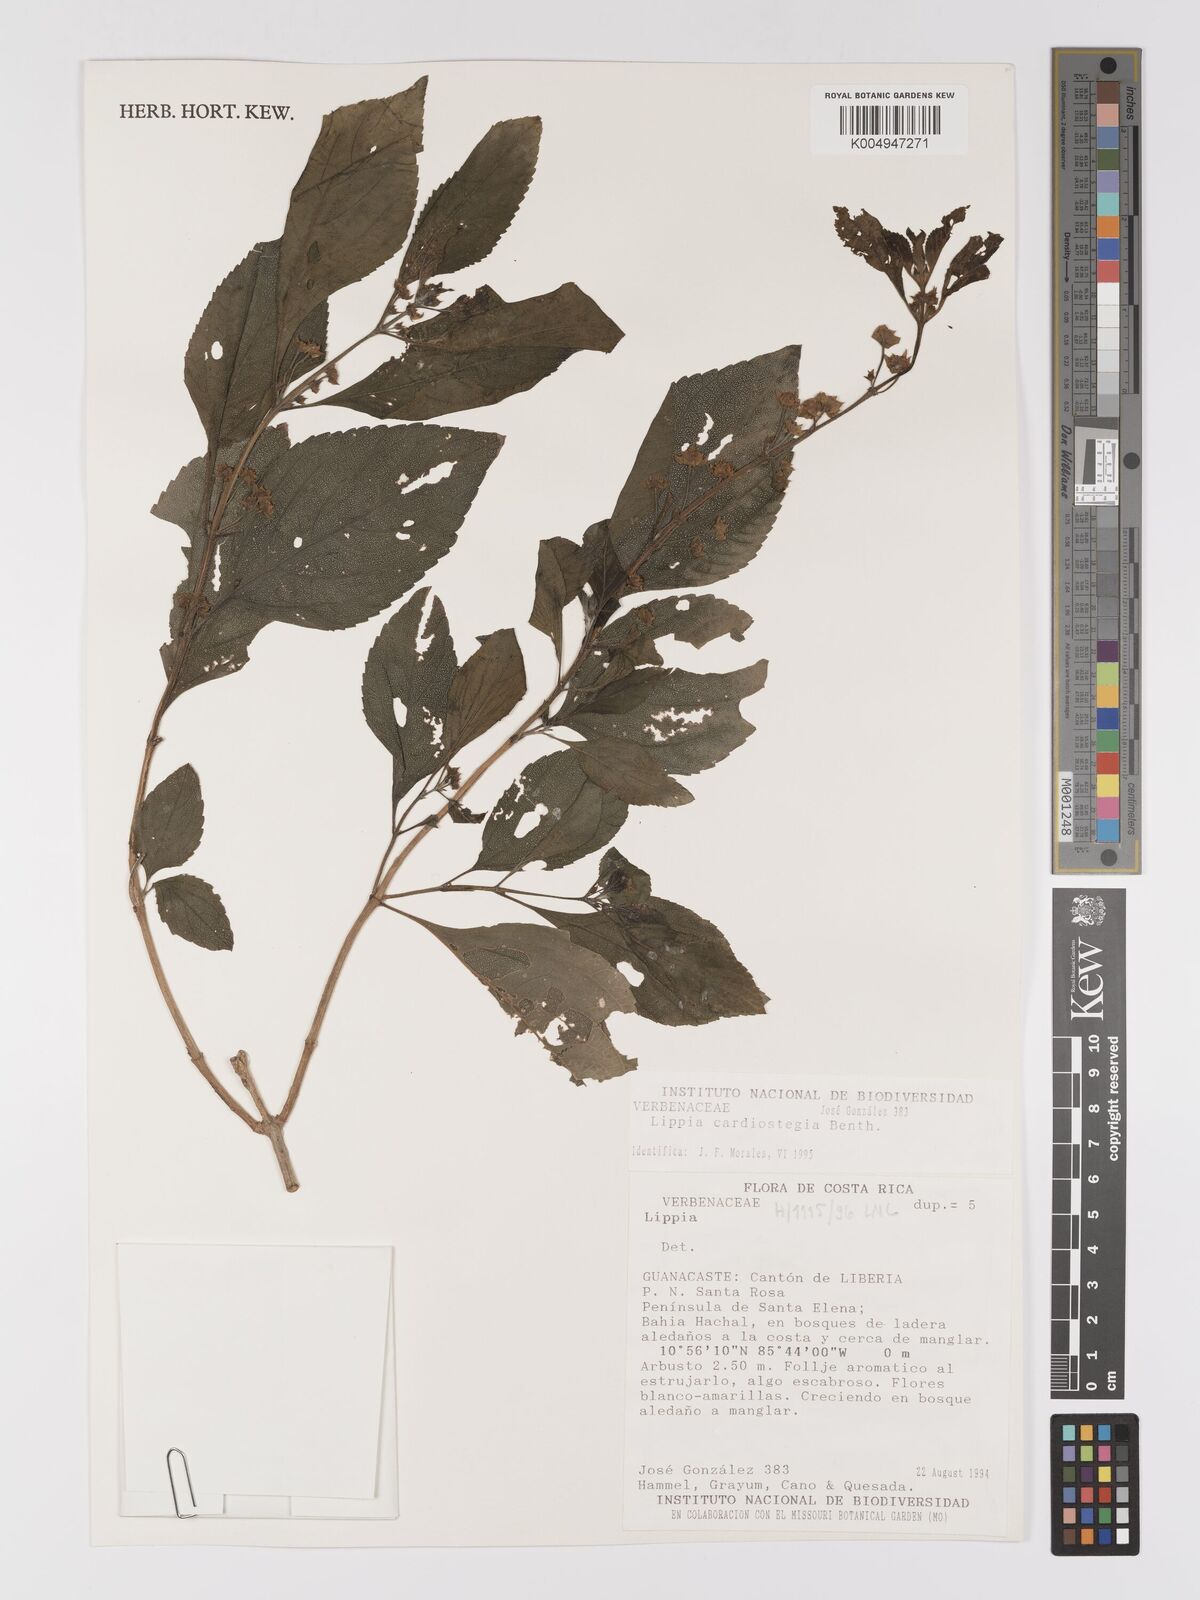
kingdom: Plantae
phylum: Tracheophyta
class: Magnoliopsida
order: Lamiales
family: Verbenaceae
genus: Lippia
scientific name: Lippia cardiostegia
